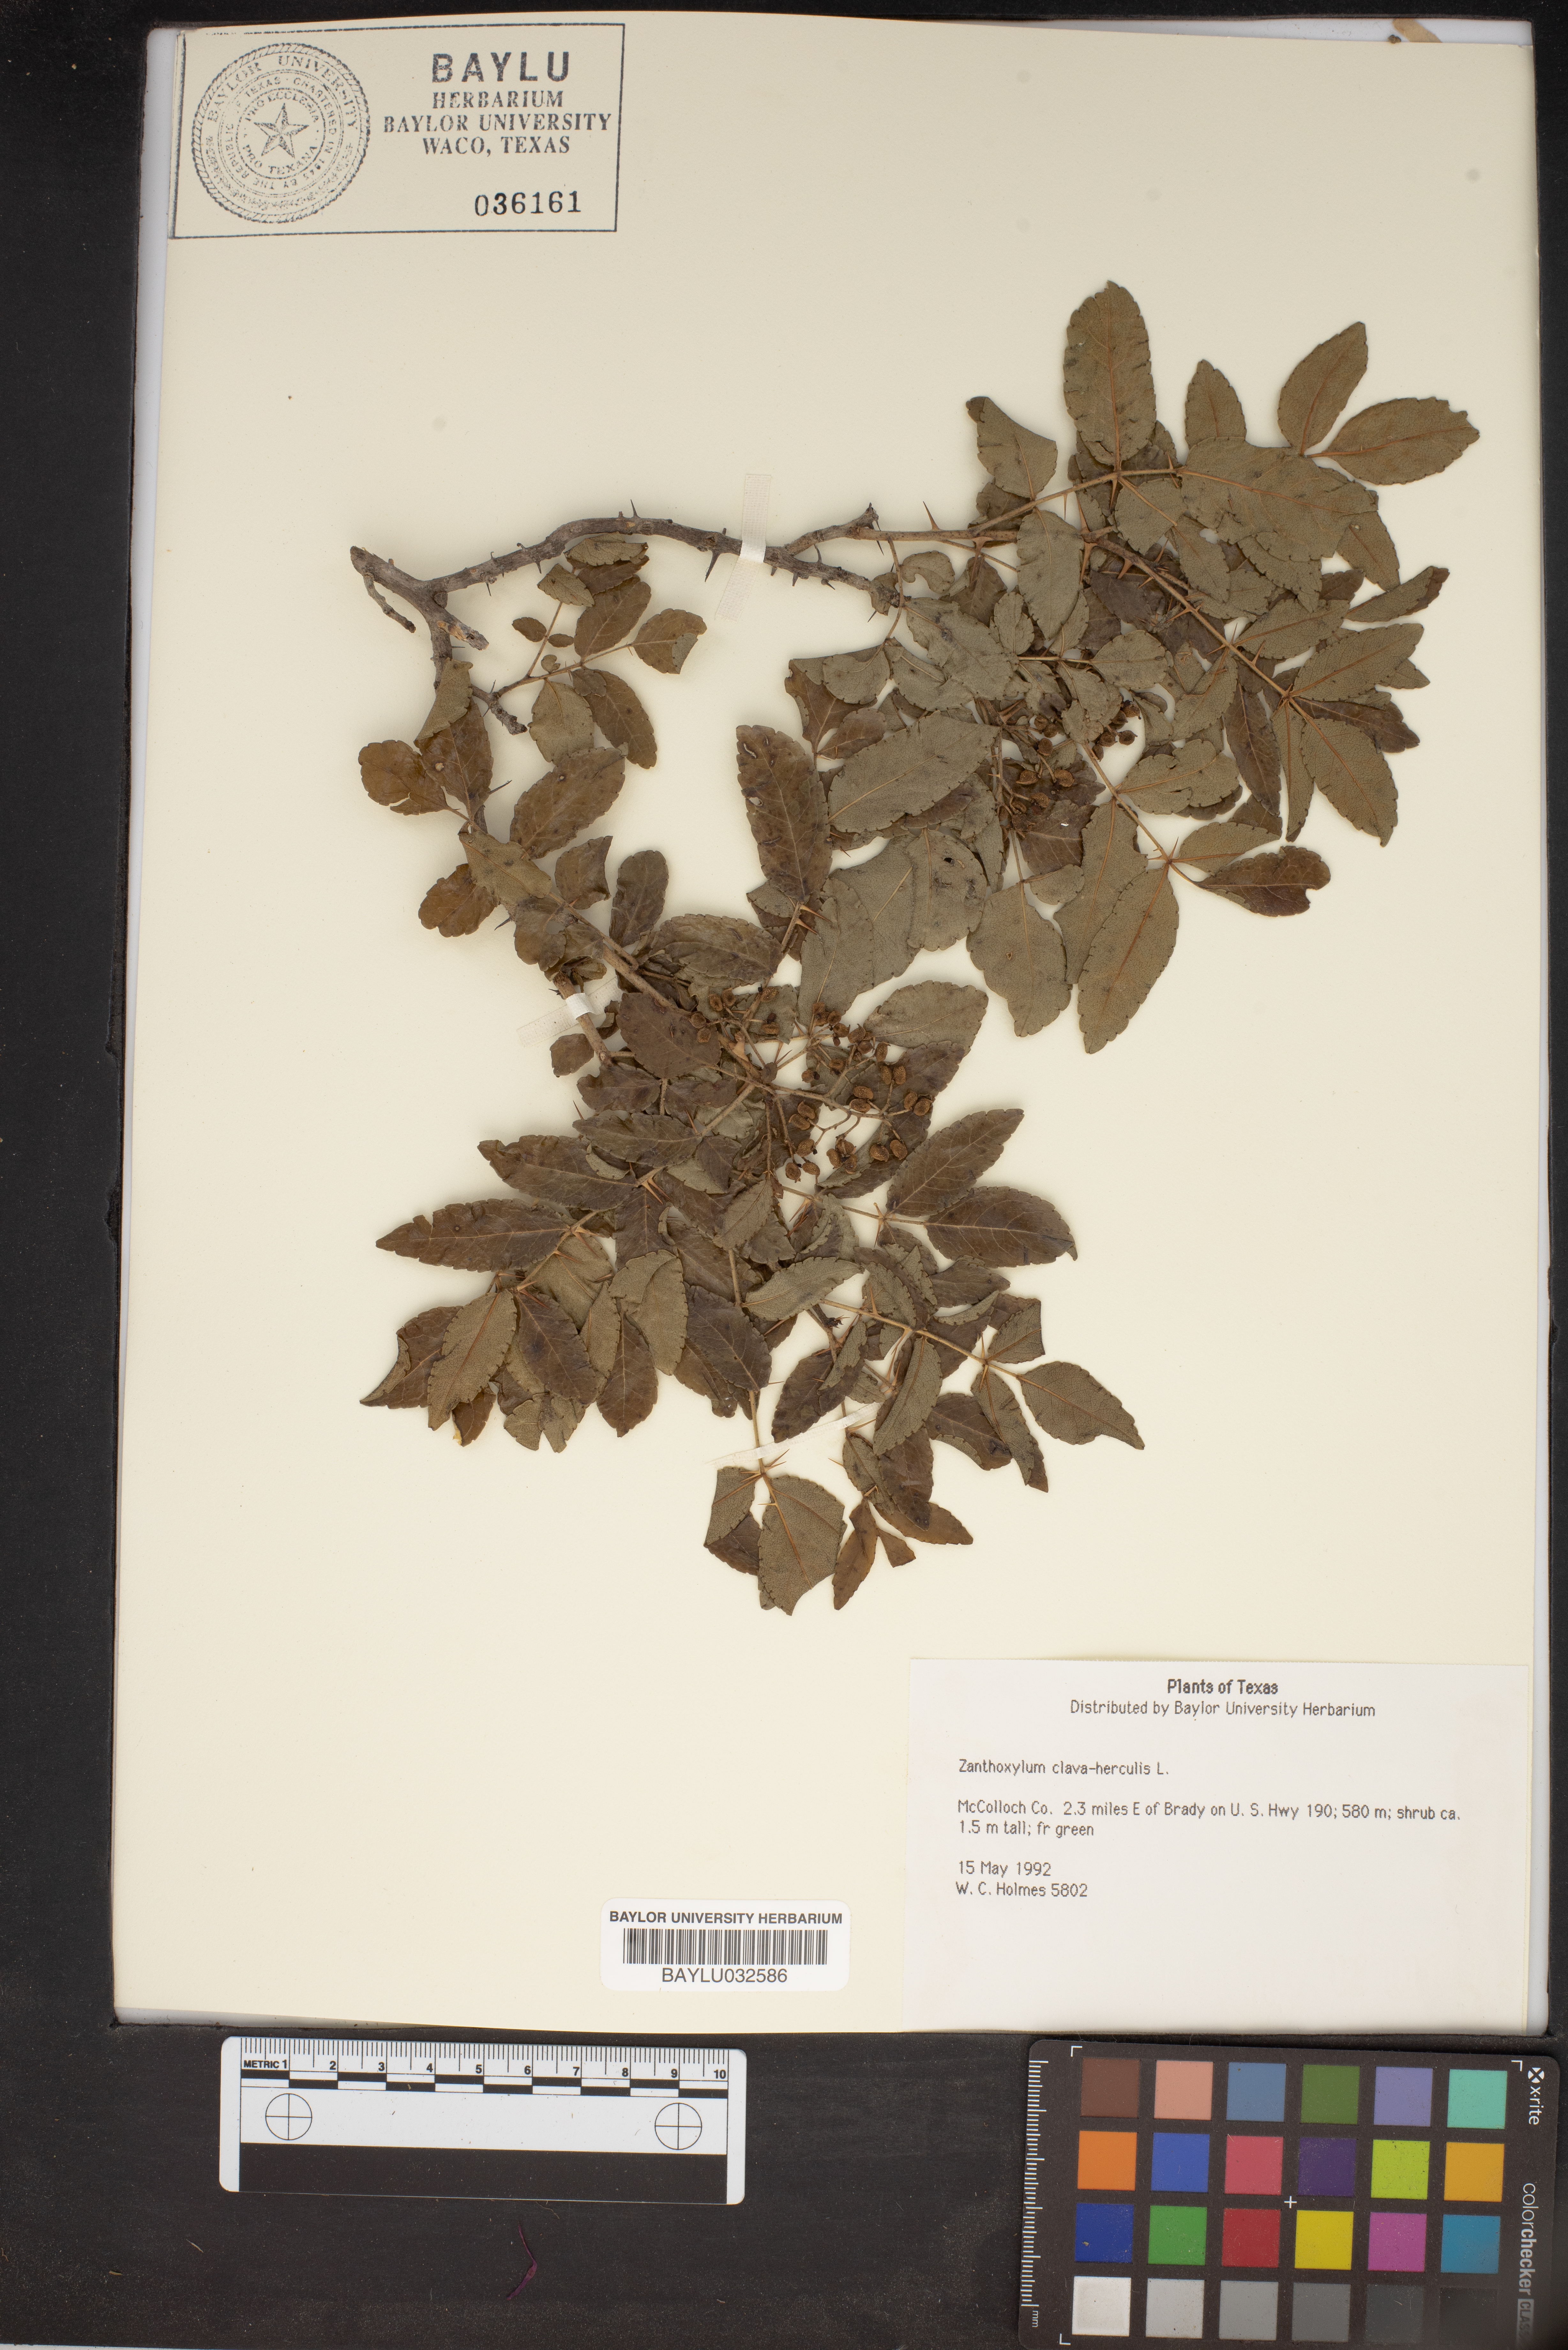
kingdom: Plantae
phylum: Tracheophyta
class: Magnoliopsida
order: Sapindales
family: Rutaceae
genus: Zanthoxylum
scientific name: Zanthoxylum avicennae
